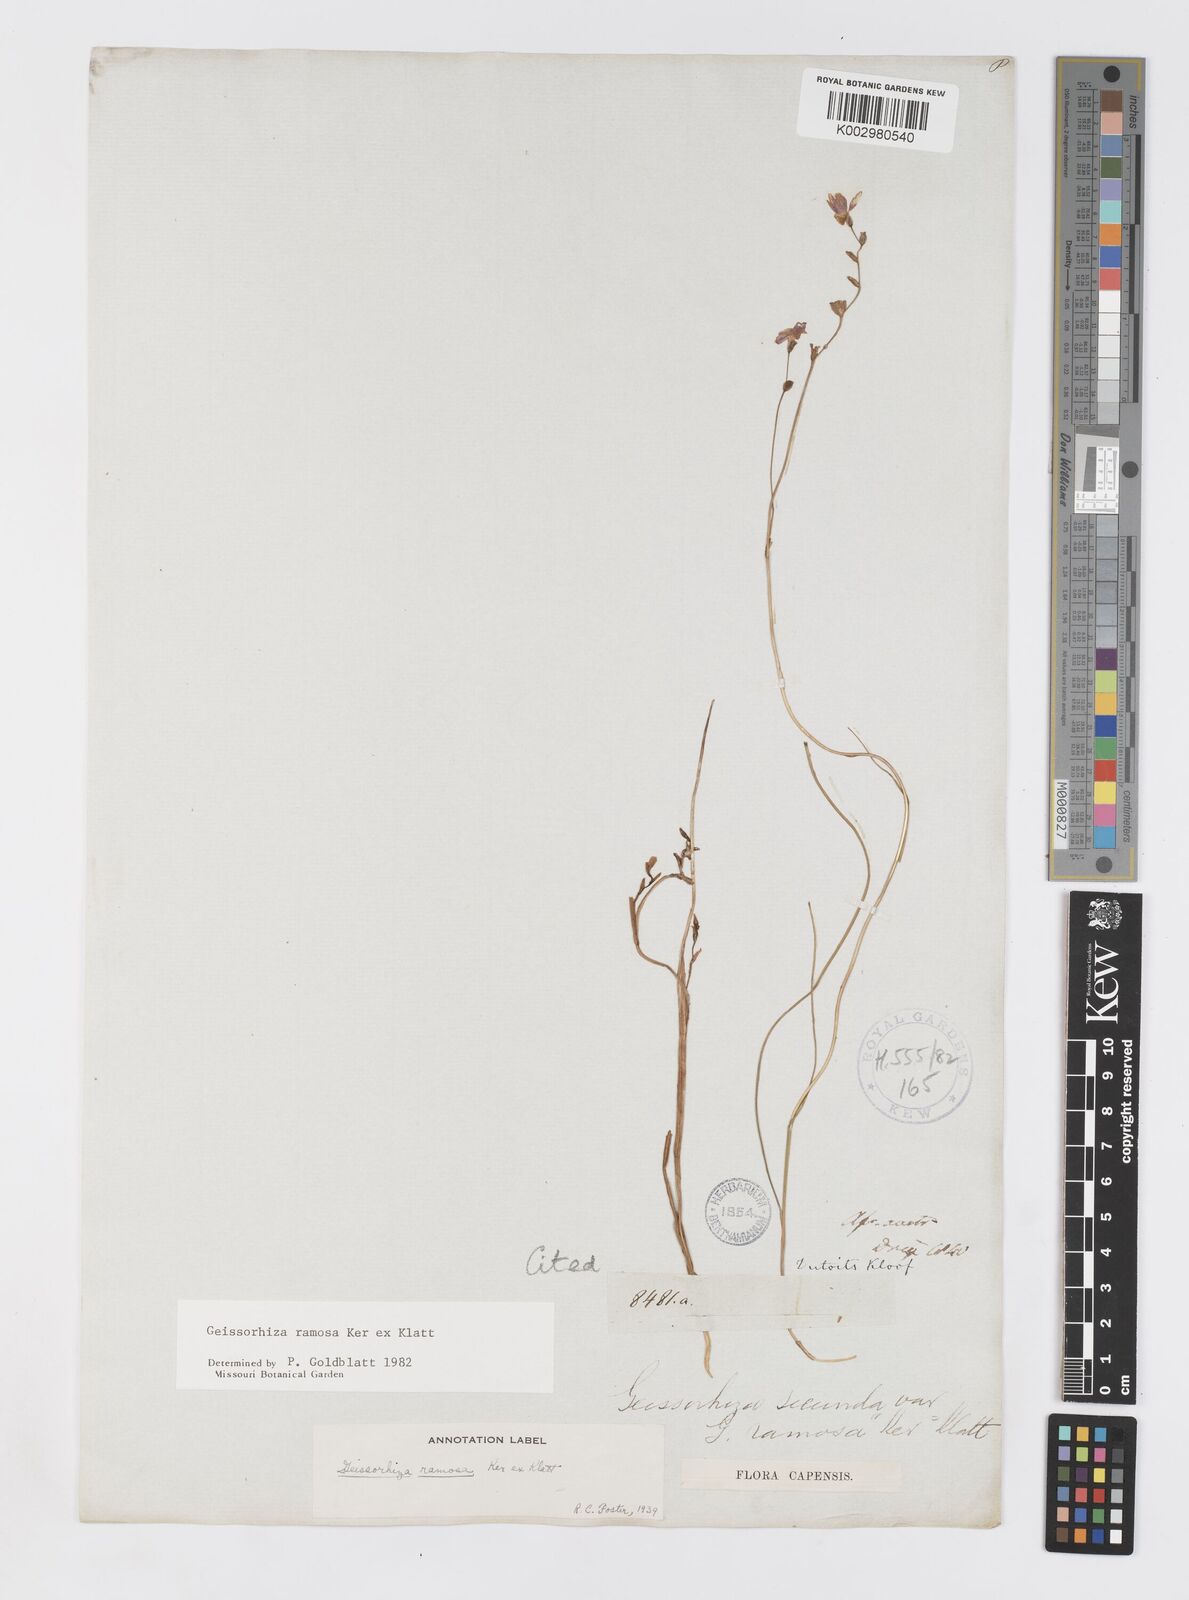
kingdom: Plantae
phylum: Tracheophyta
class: Liliopsida
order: Asparagales
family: Iridaceae
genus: Geissorhiza
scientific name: Geissorhiza ramosa
